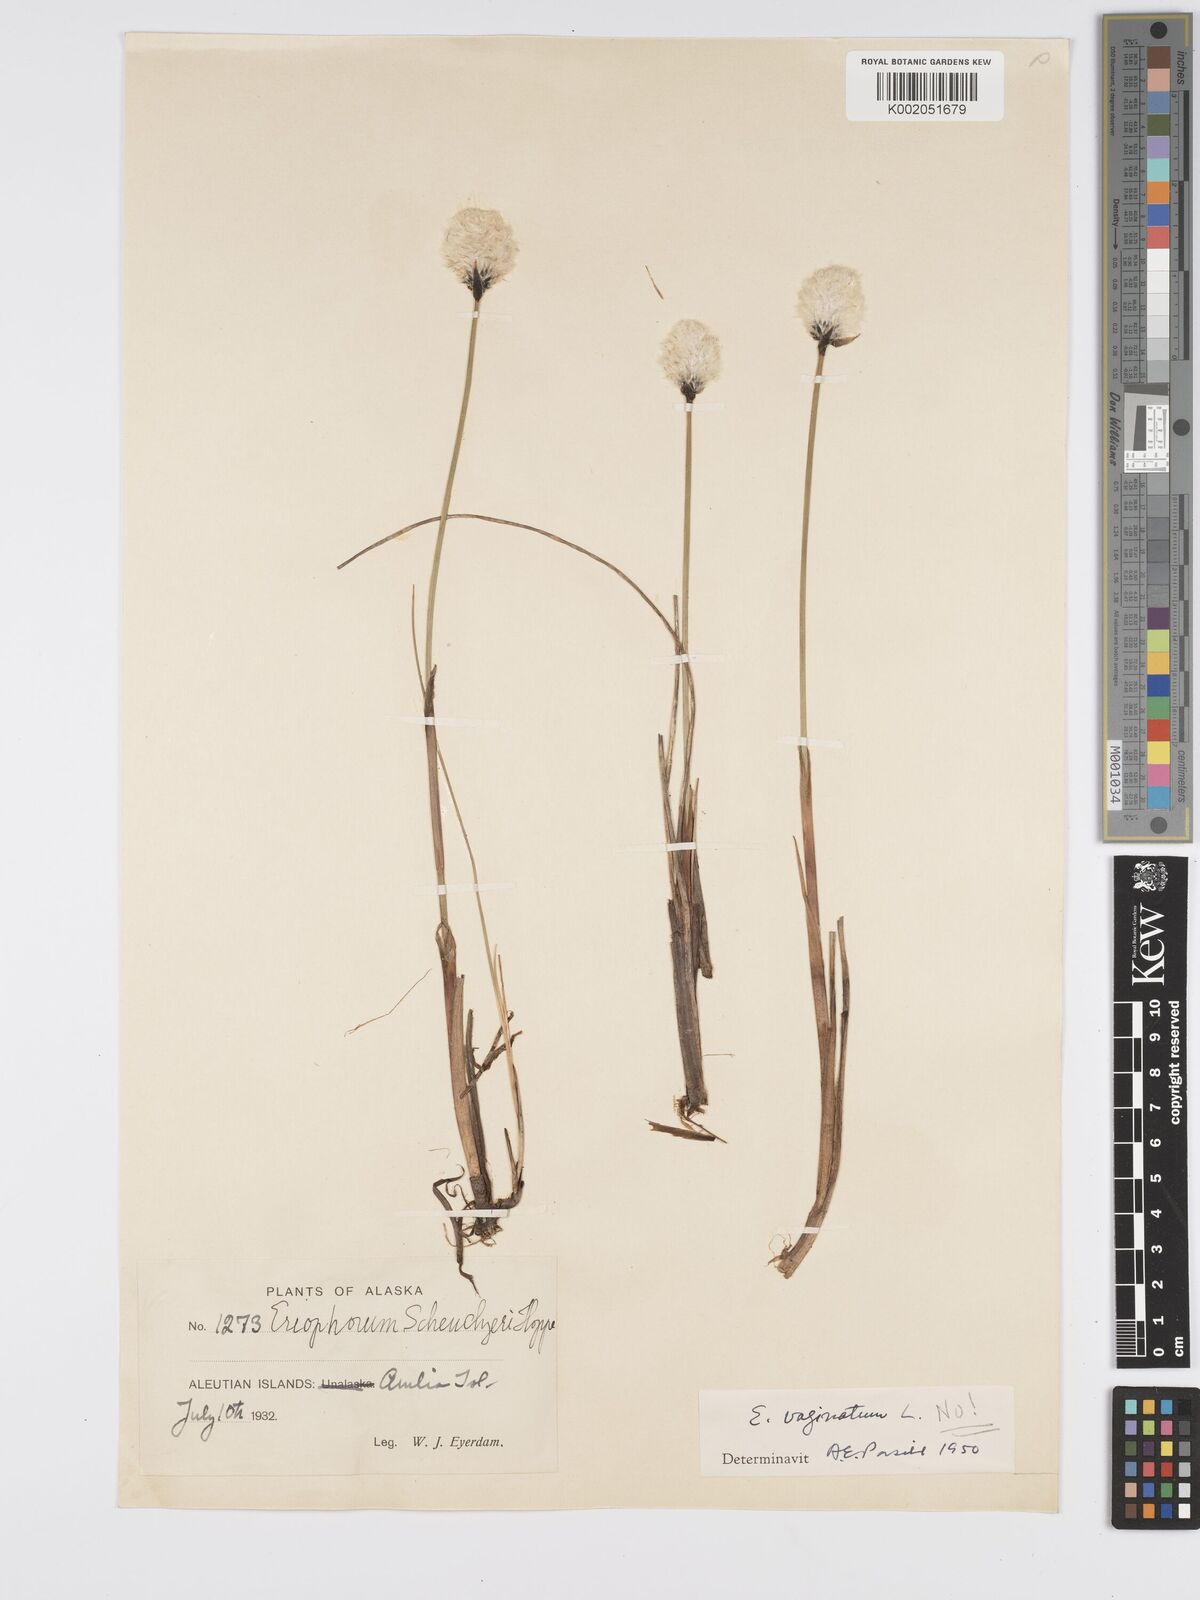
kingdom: Plantae
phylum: Tracheophyta
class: Liliopsida
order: Poales
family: Cyperaceae
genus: Eriophorum
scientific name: Eriophorum vaginatum
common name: Hare's-tail cottongrass
